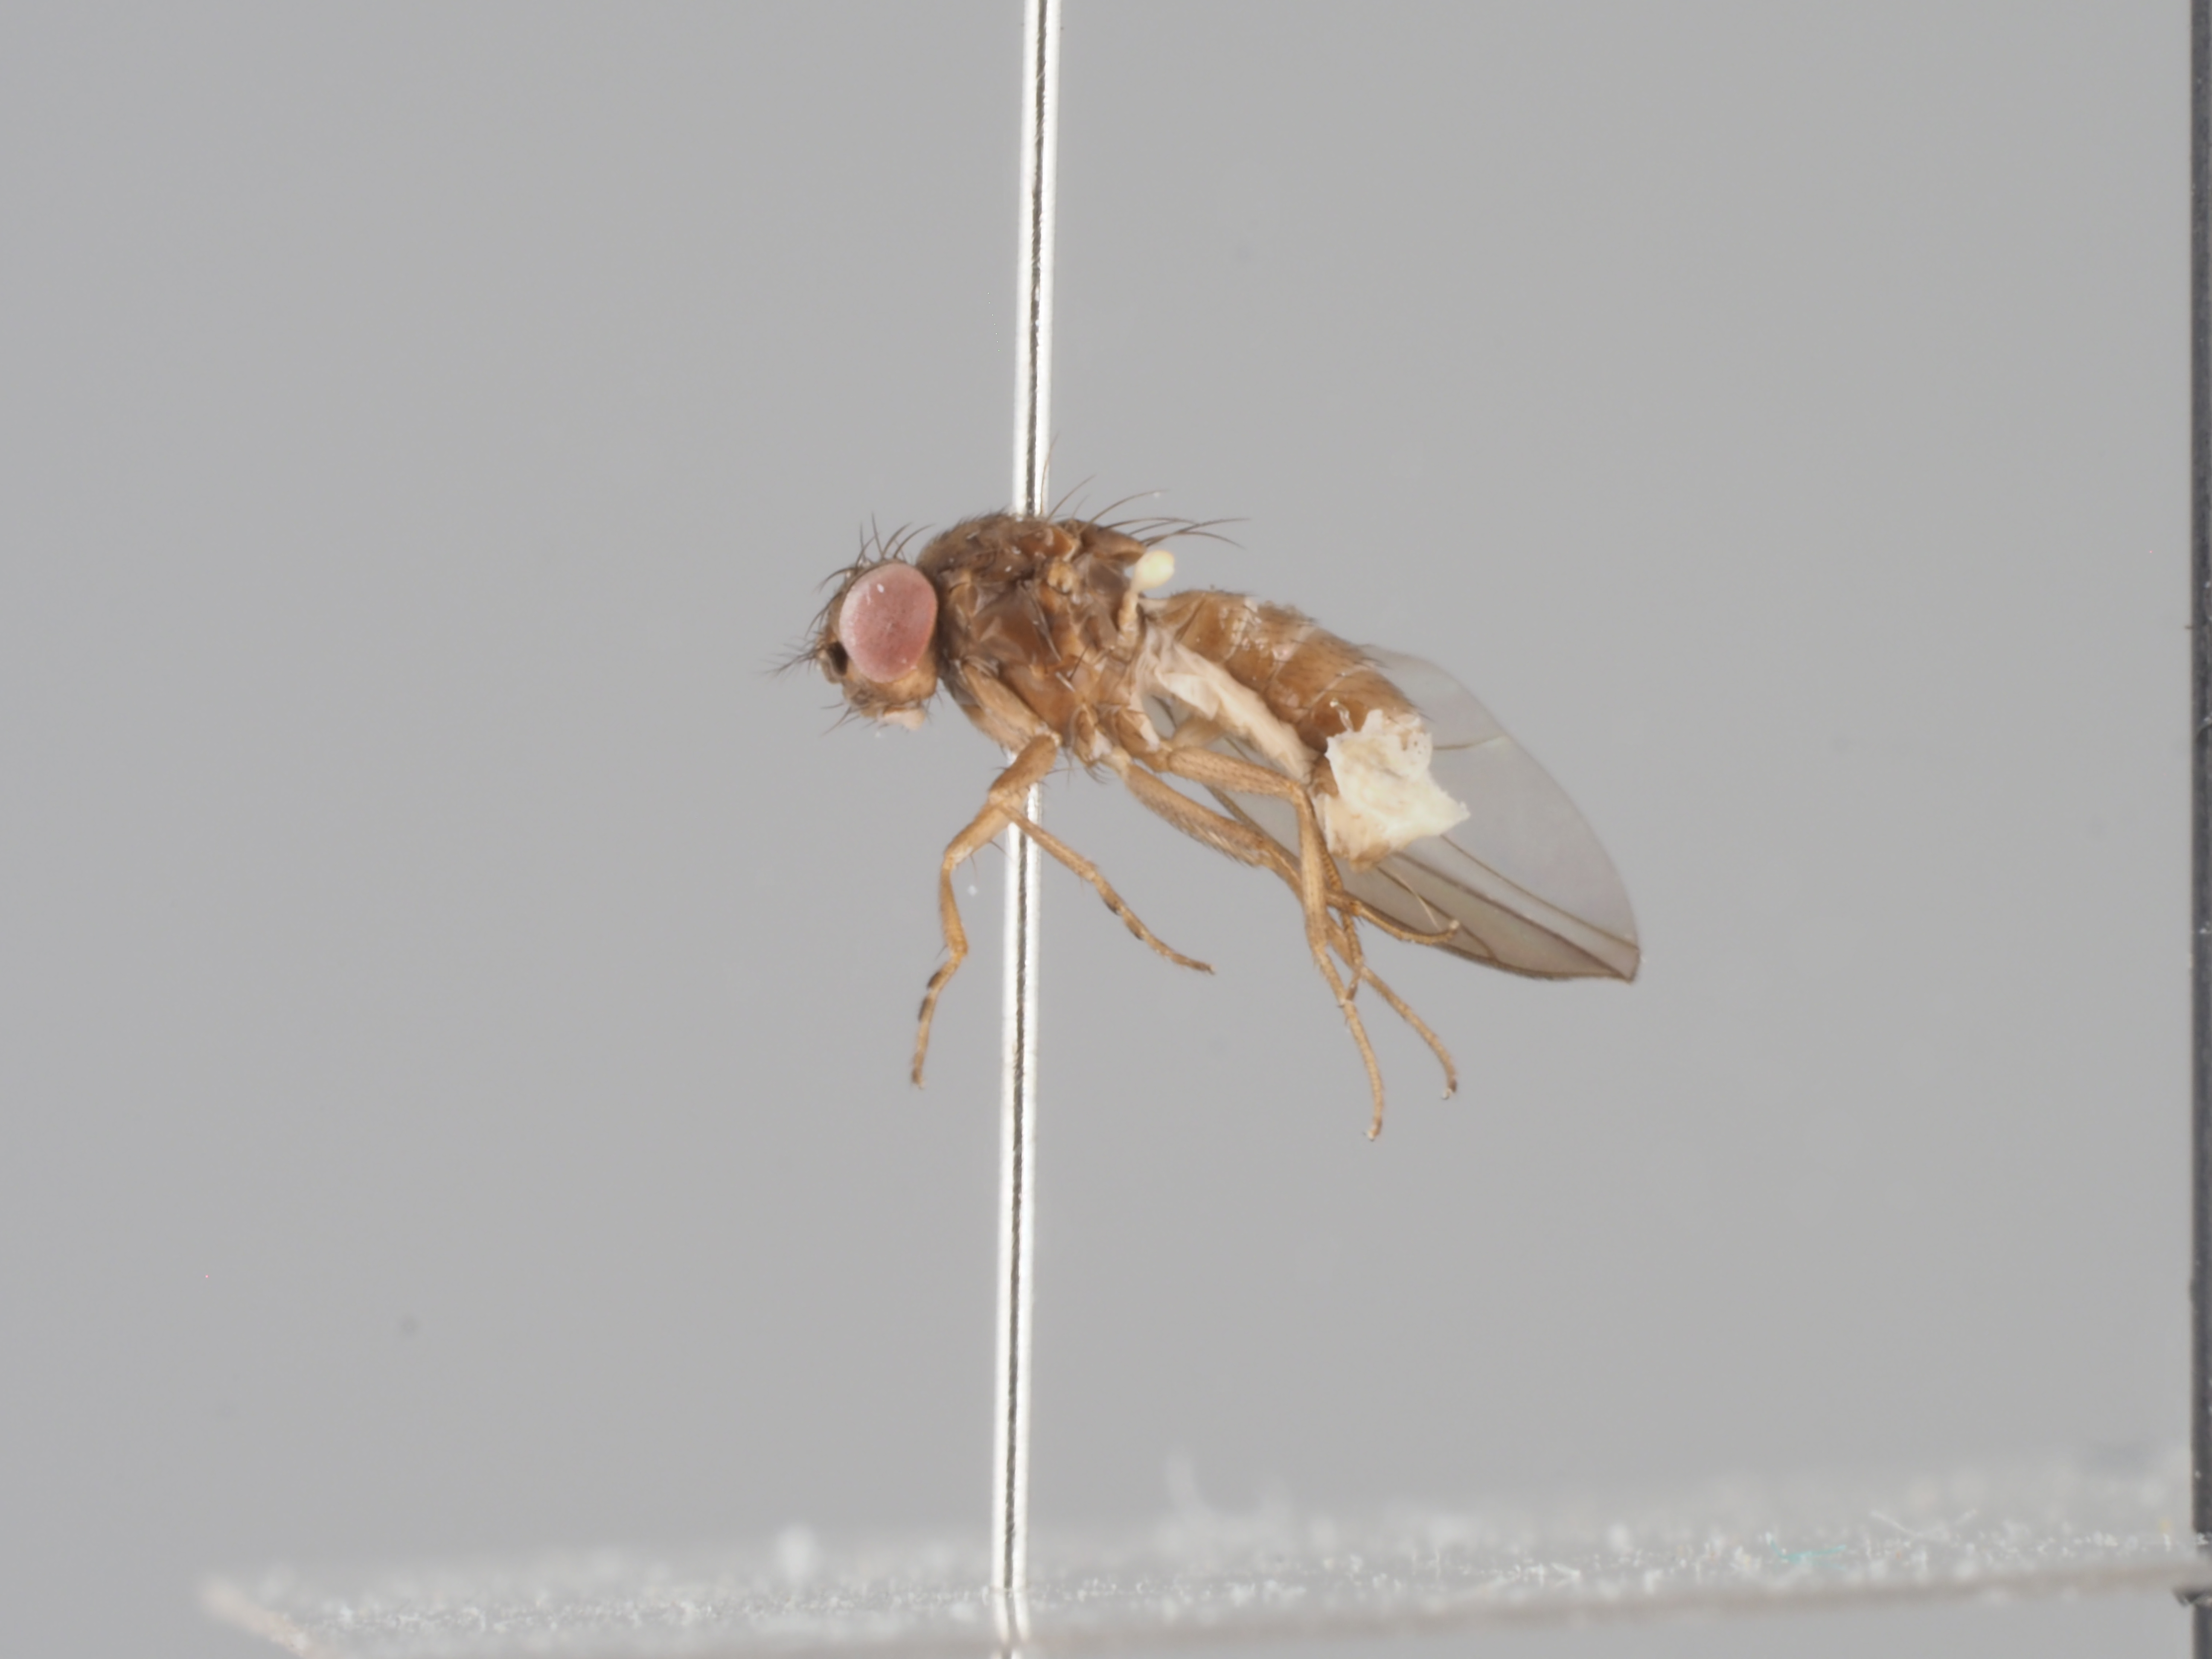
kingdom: Animalia
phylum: Arthropoda
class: Insecta
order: Diptera
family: Drosophilidae
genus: Drosophila
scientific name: Drosophila tristis
